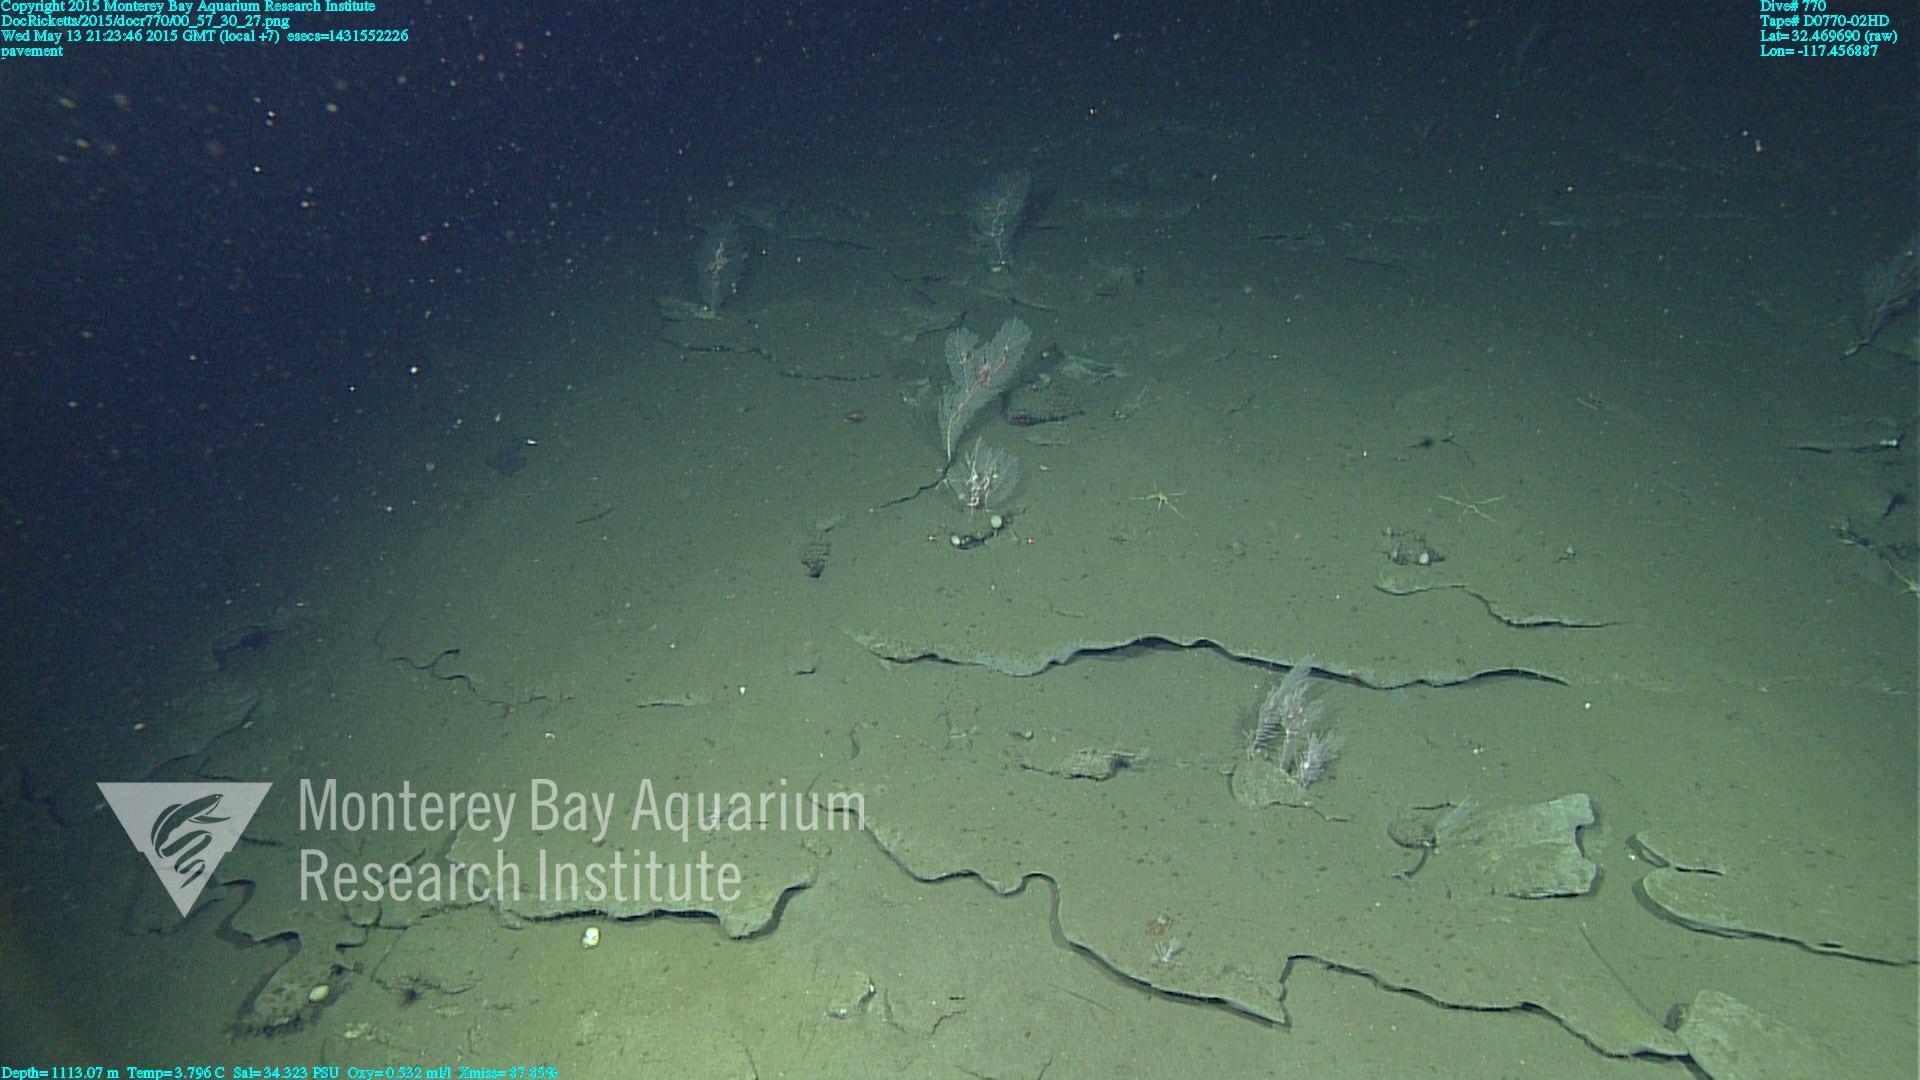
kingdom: Animalia
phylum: Cnidaria
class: Anthozoa
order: Scleralcyonacea
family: Primnoidae
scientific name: Primnoidae
